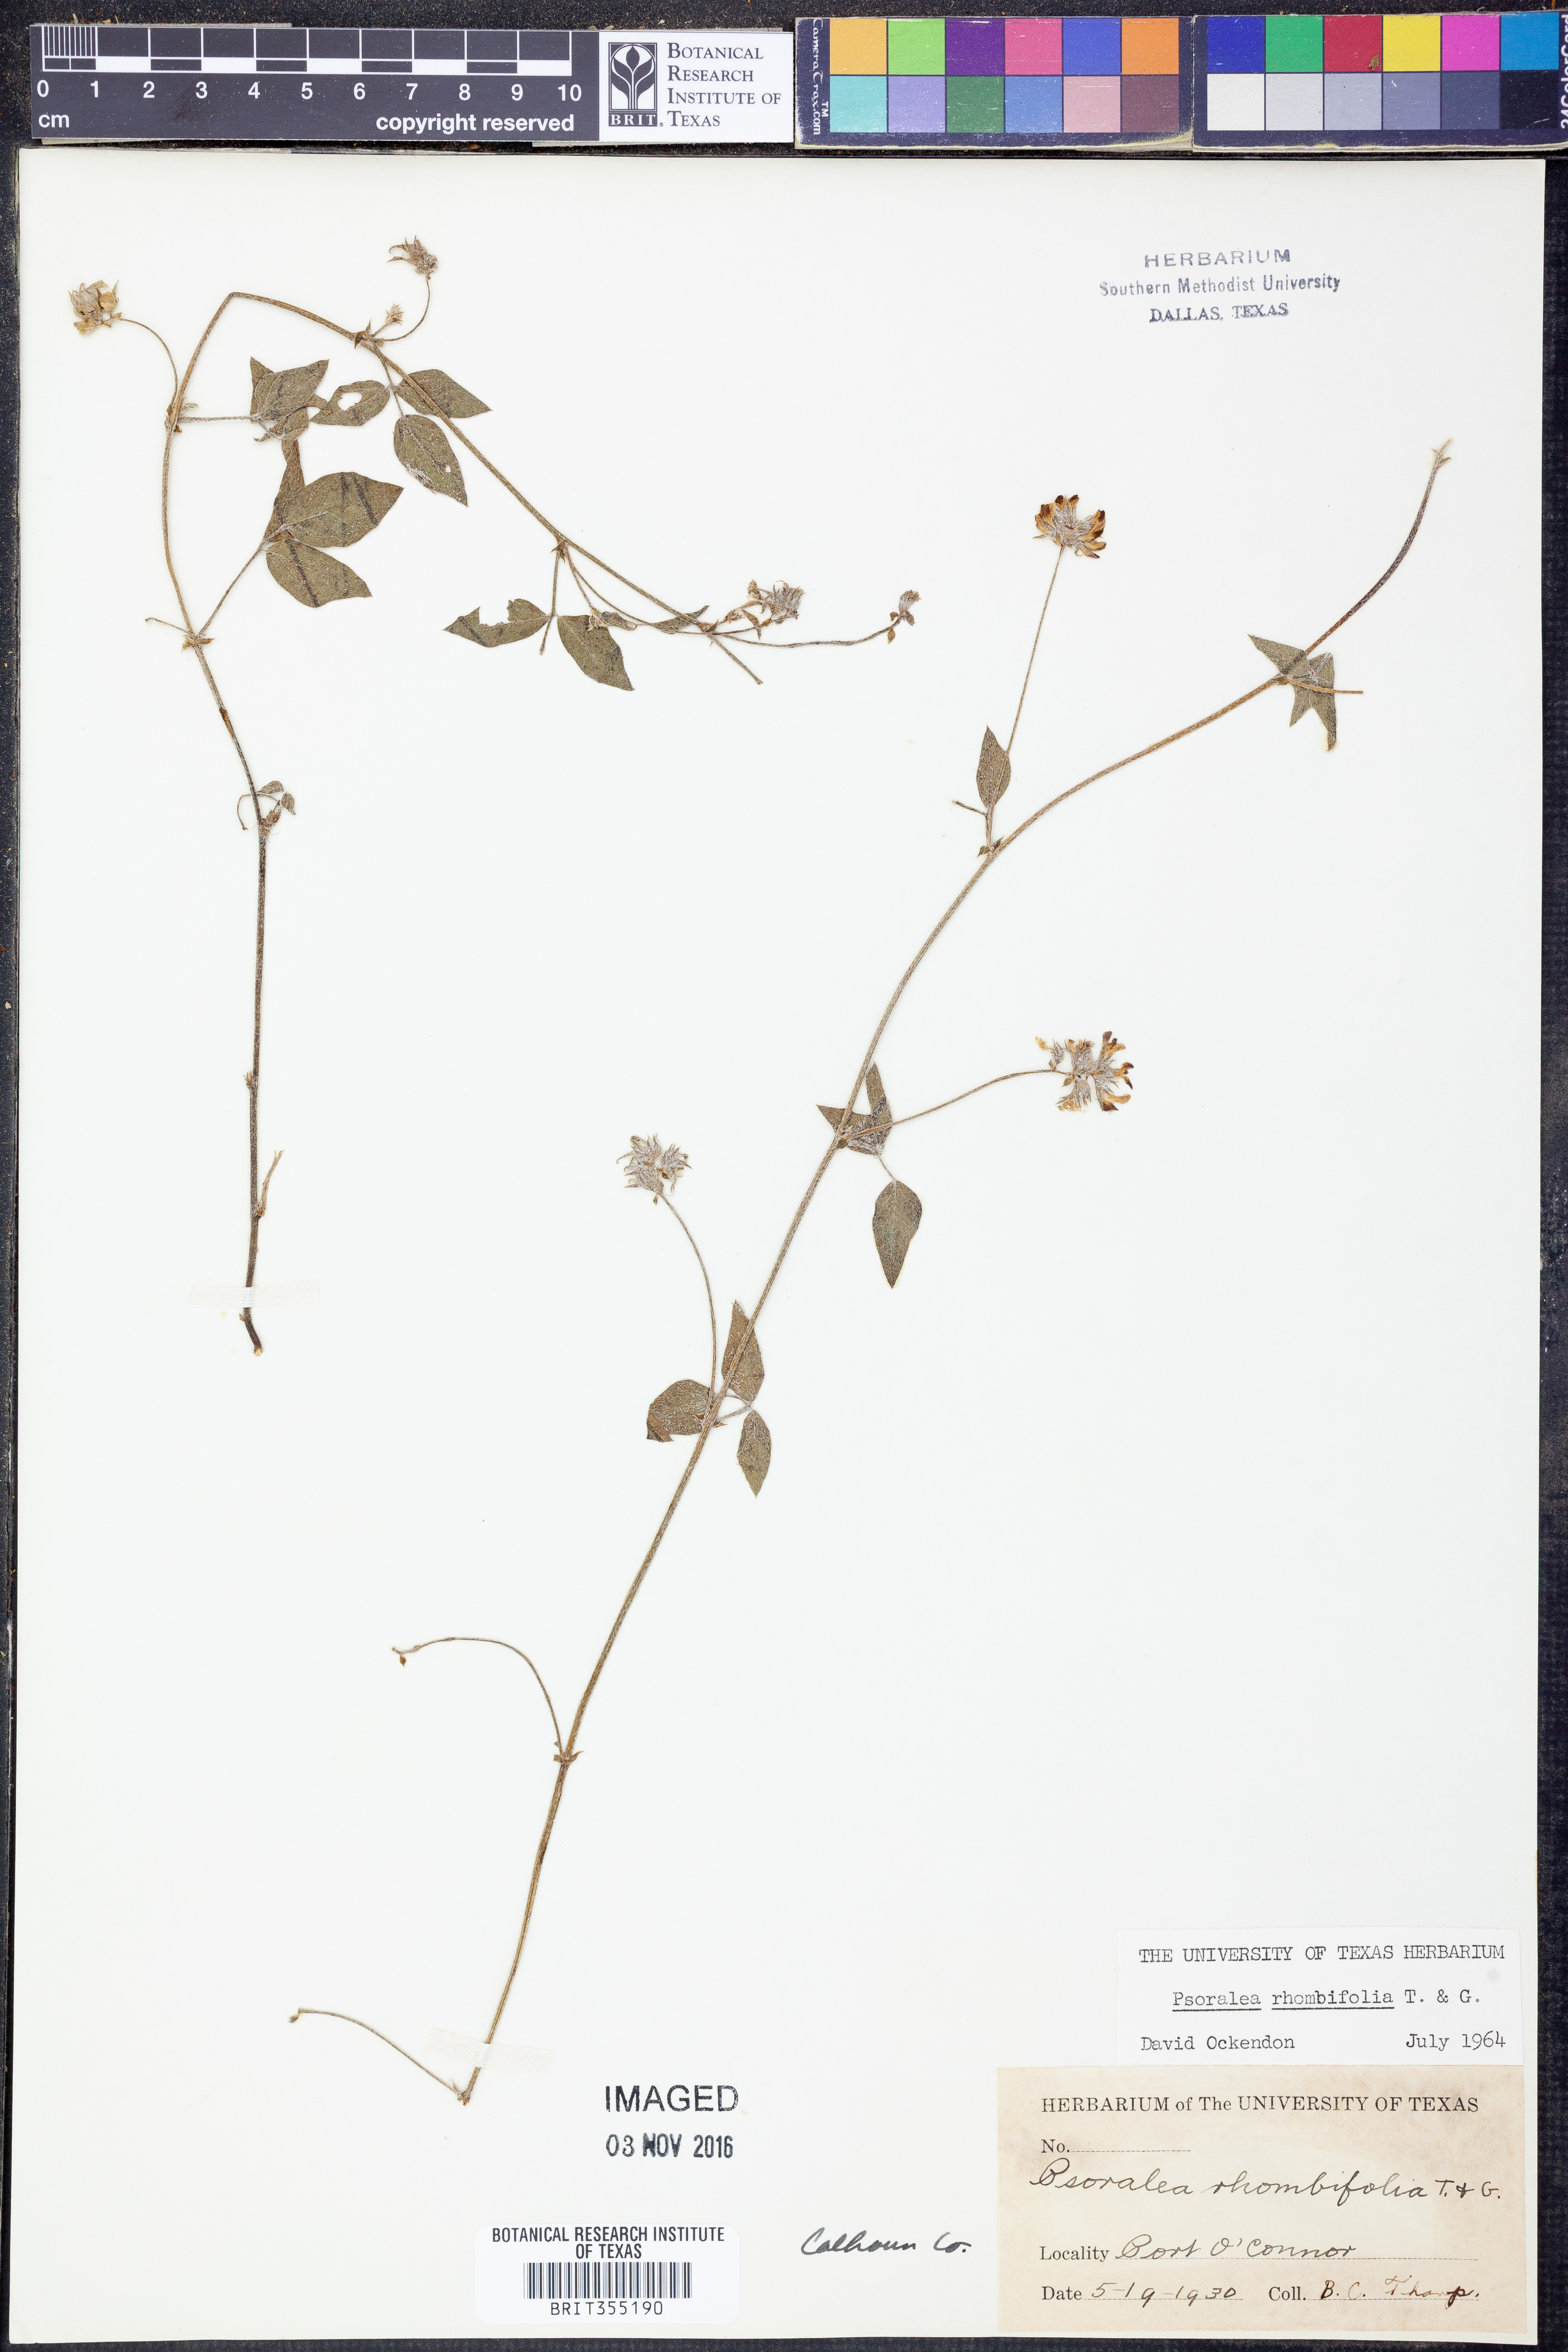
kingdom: Plantae
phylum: Tracheophyta
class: Magnoliopsida
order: Fabales
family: Fabaceae
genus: Pediomelum
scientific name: Pediomelum rhombifolium
